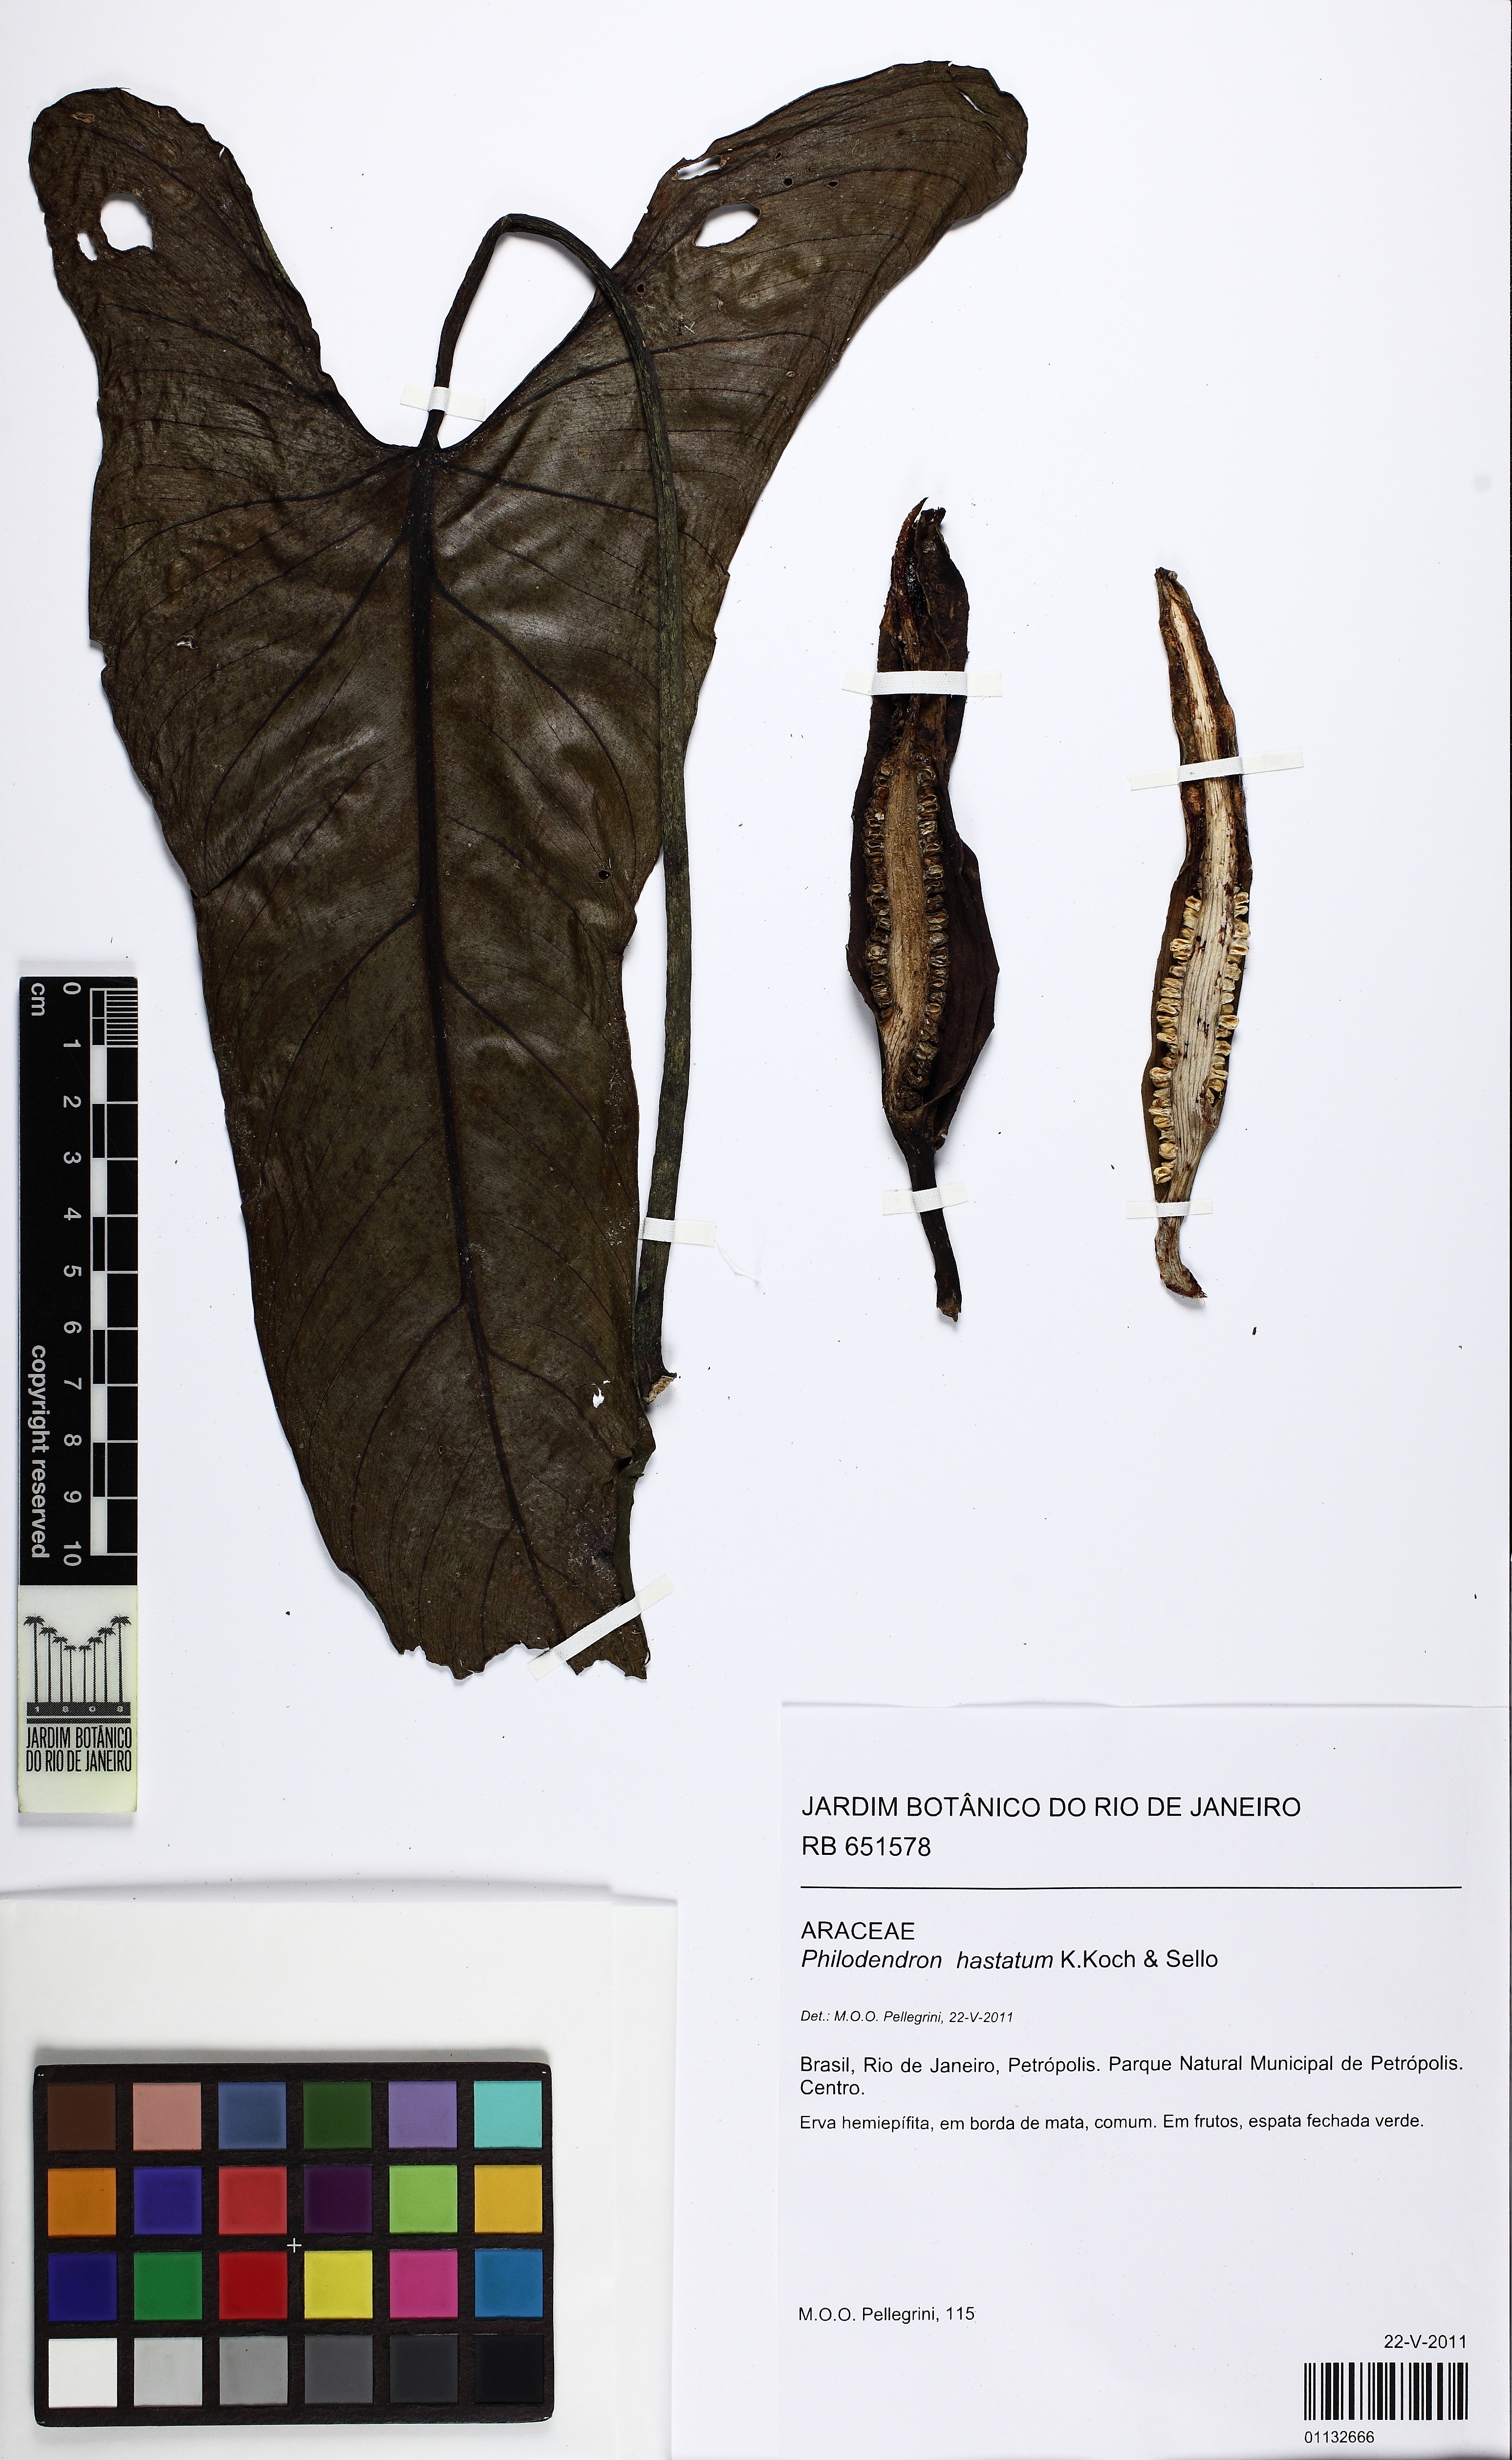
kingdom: Plantae
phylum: Tracheophyta
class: Liliopsida
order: Alismatales
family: Araceae
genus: Philodendron
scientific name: Philodendron hastatum
